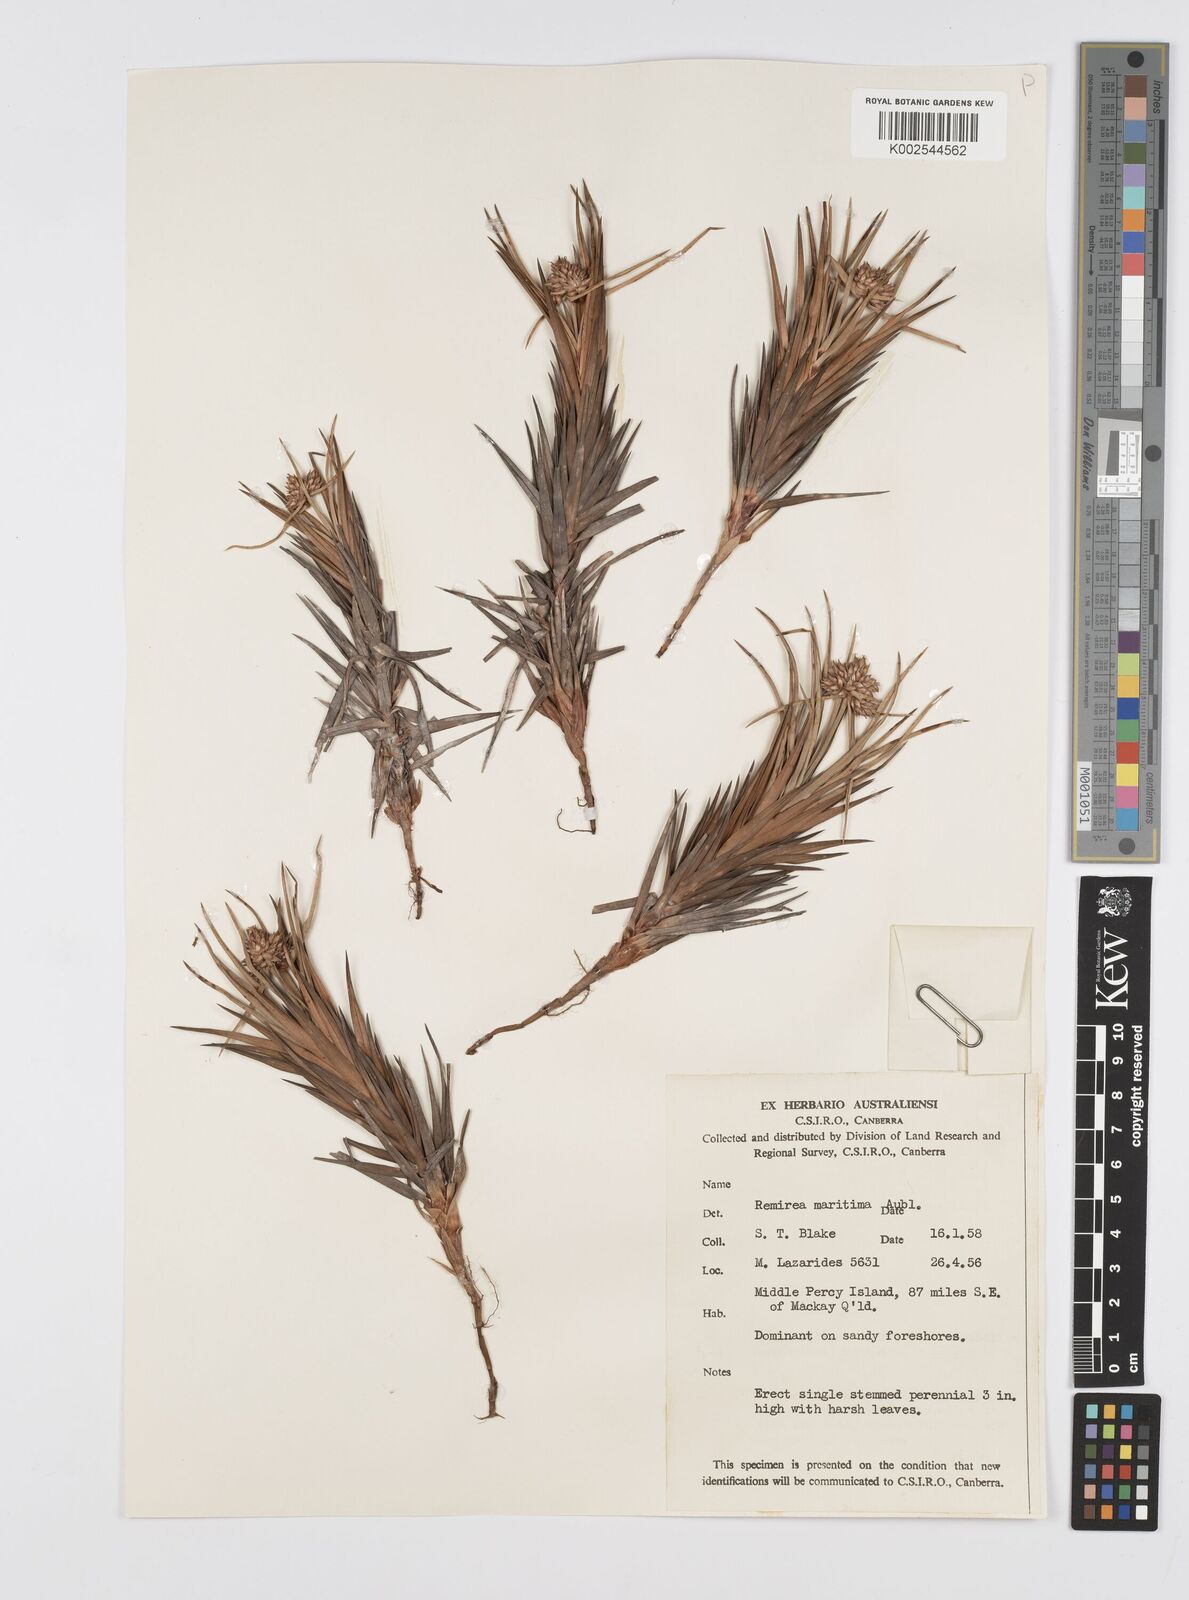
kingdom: Plantae
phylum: Tracheophyta
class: Liliopsida
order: Poales
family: Cyperaceae
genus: Cyperus
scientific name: Cyperus
